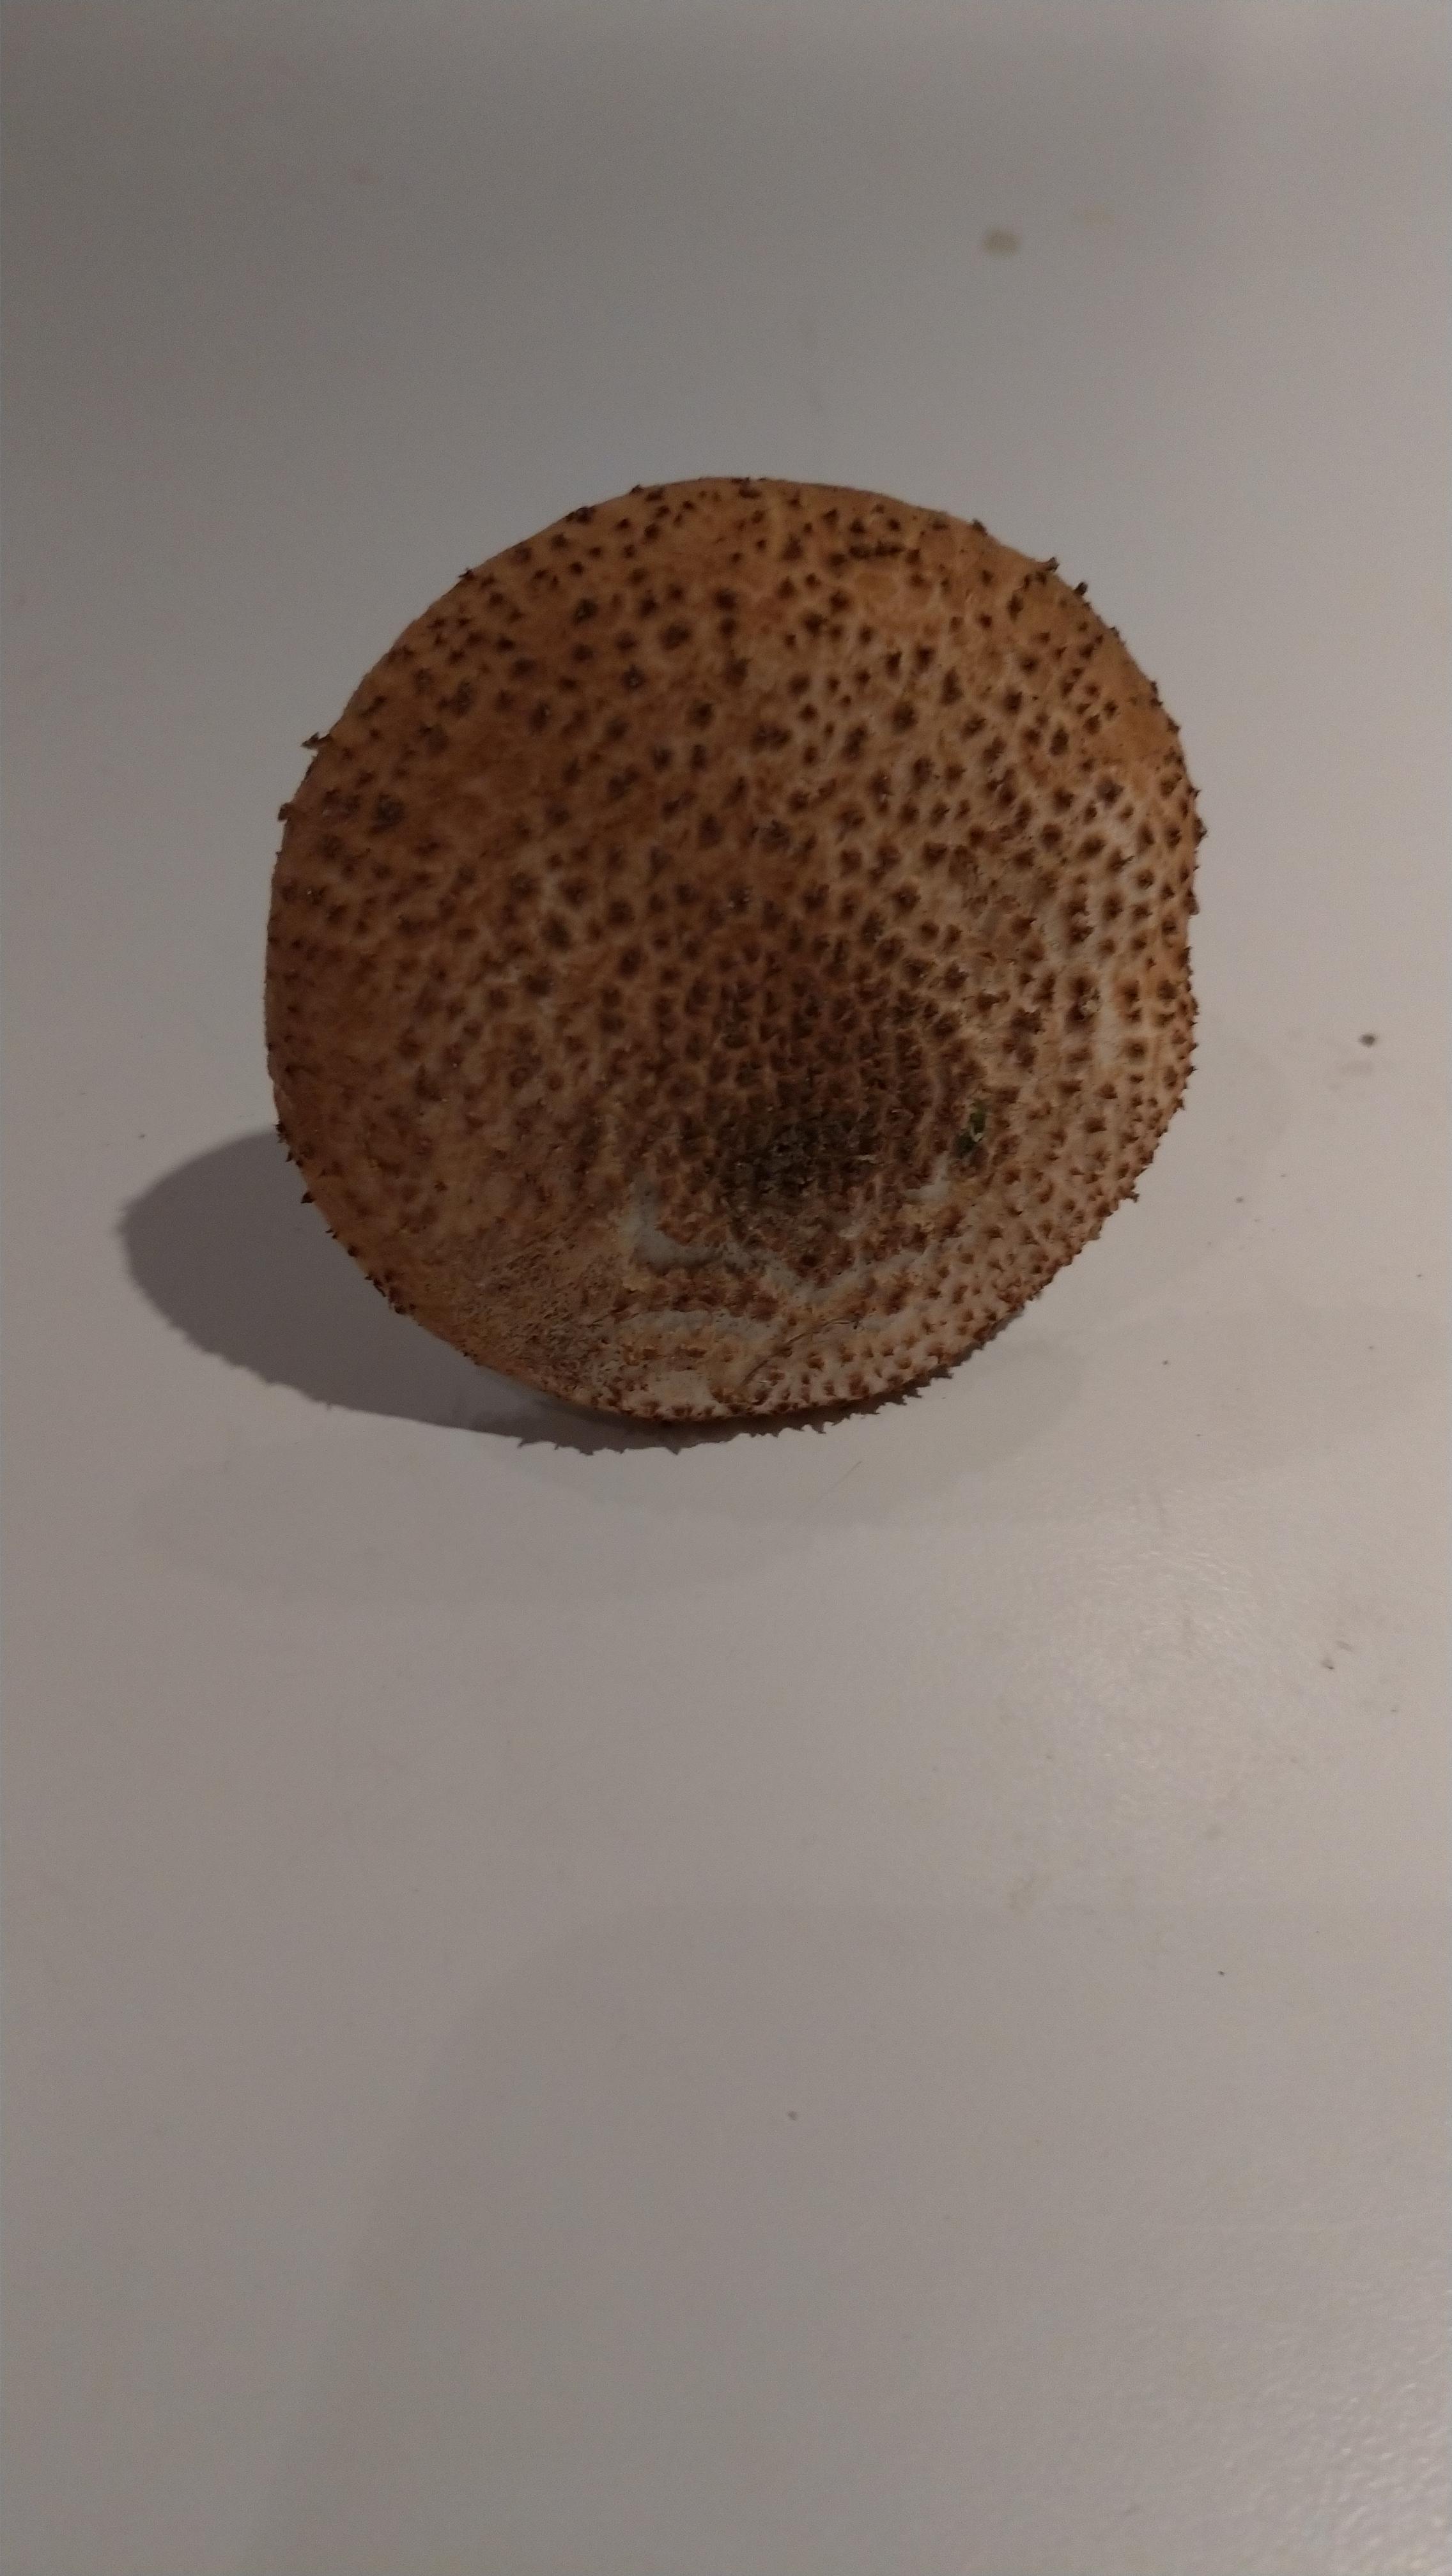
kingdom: Fungi
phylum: Basidiomycota
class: Agaricomycetes
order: Agaricales
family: Agaricaceae
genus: Echinoderma
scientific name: Echinoderma asperum
